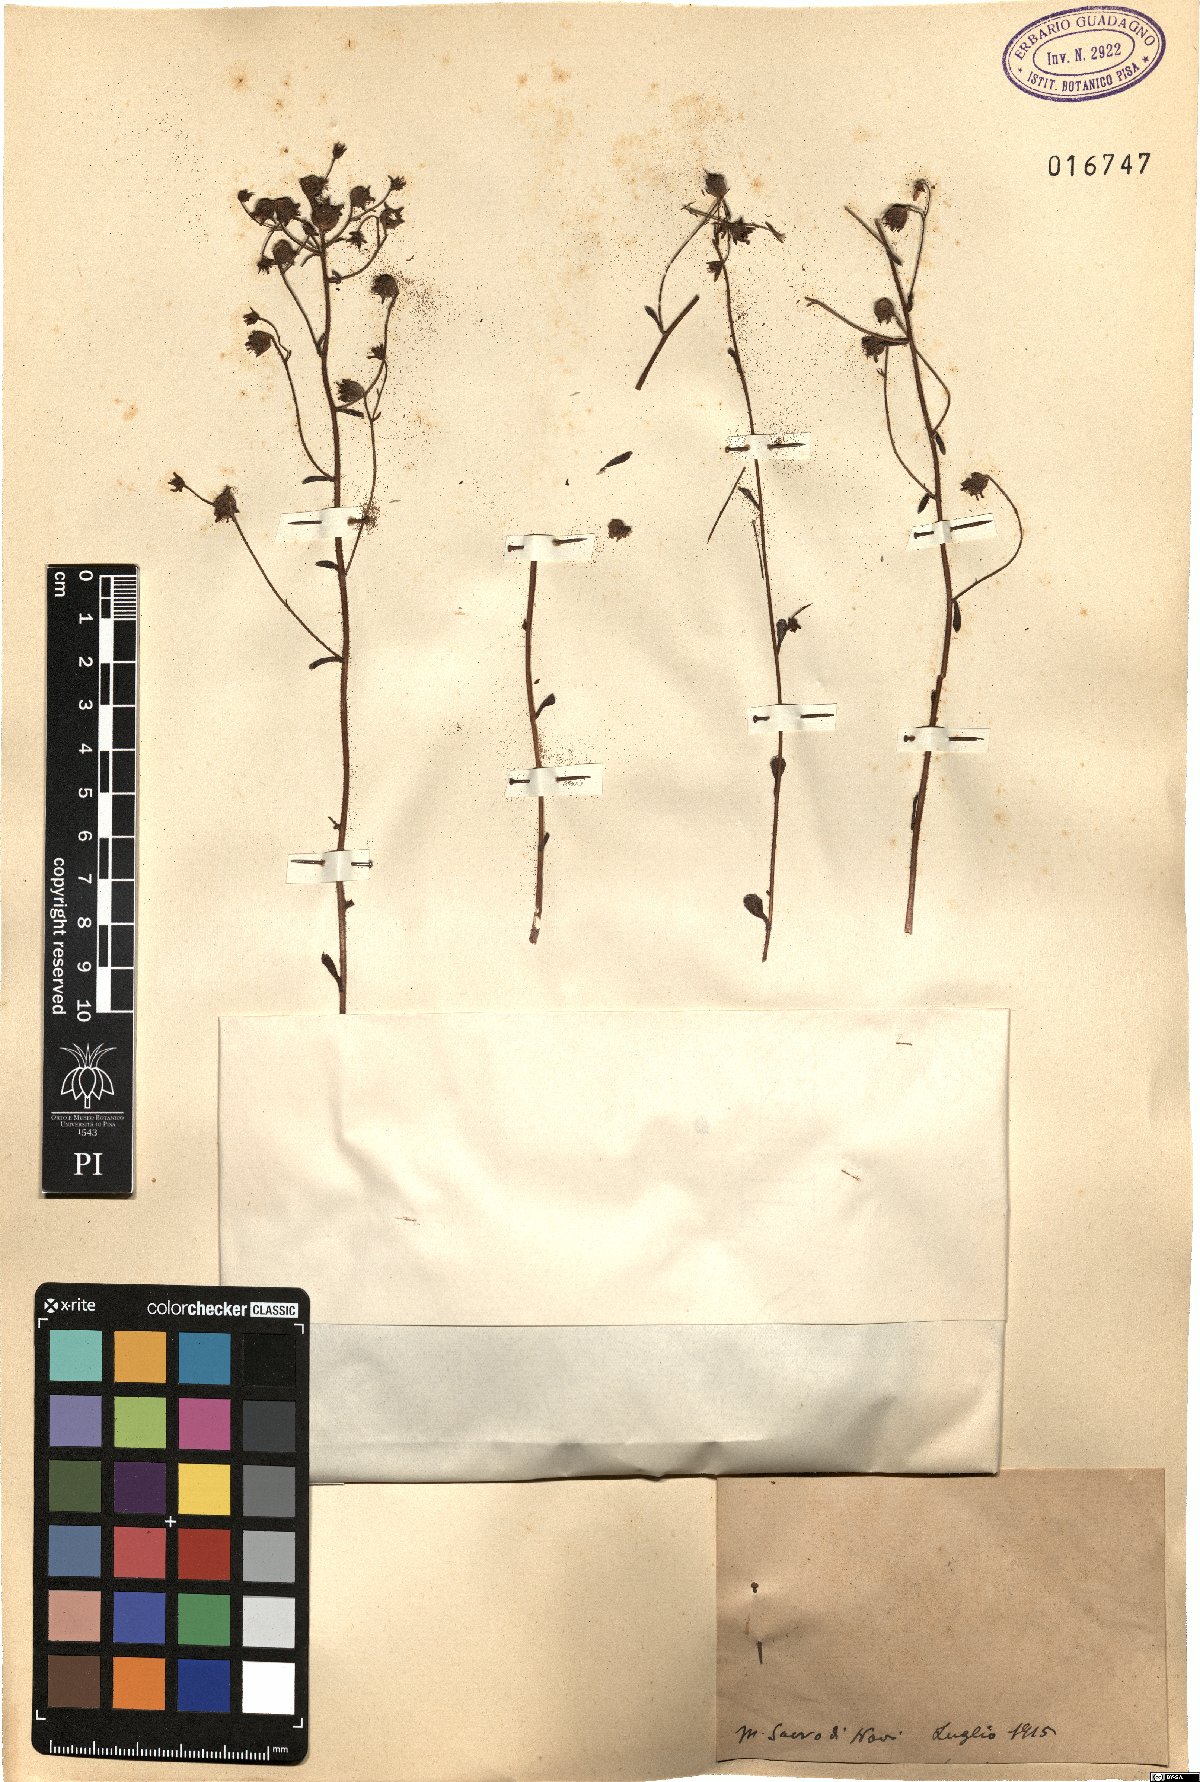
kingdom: Plantae
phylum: Tracheophyta
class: Magnoliopsida
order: Saxifragales
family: Saxifragaceae
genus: Saxifraga
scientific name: Saxifraga
